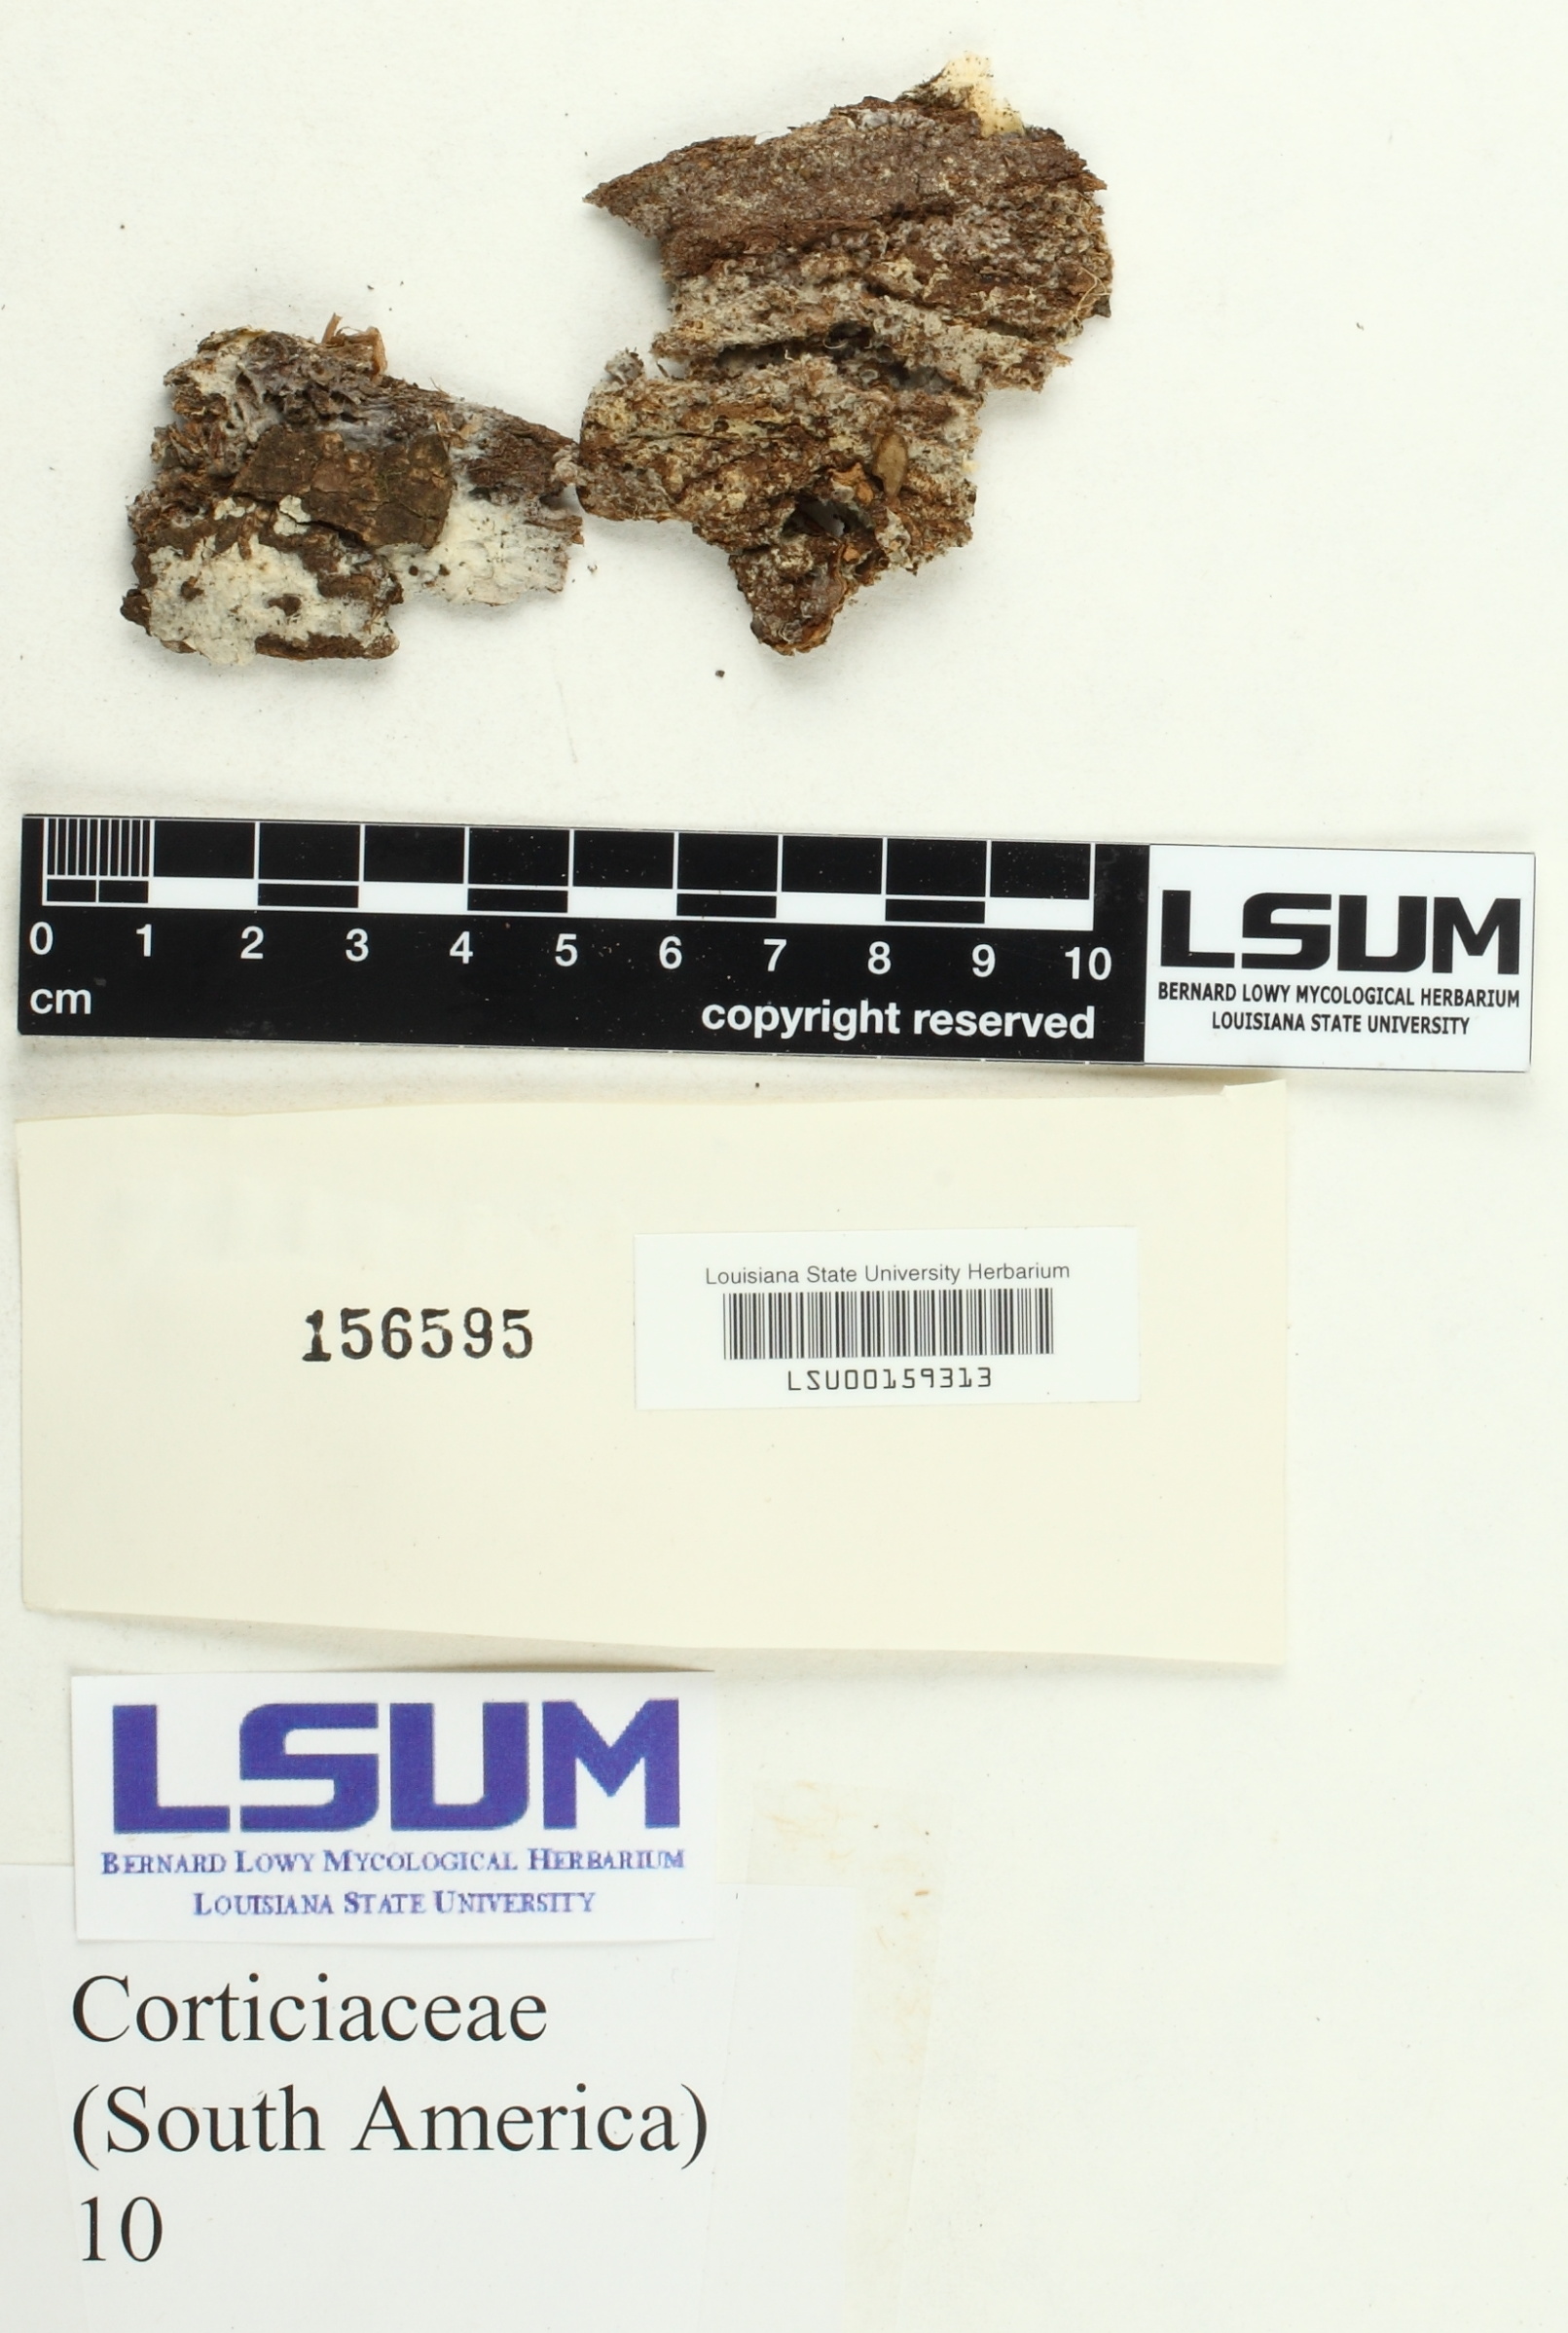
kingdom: Fungi
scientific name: Fungi
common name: Fungi
